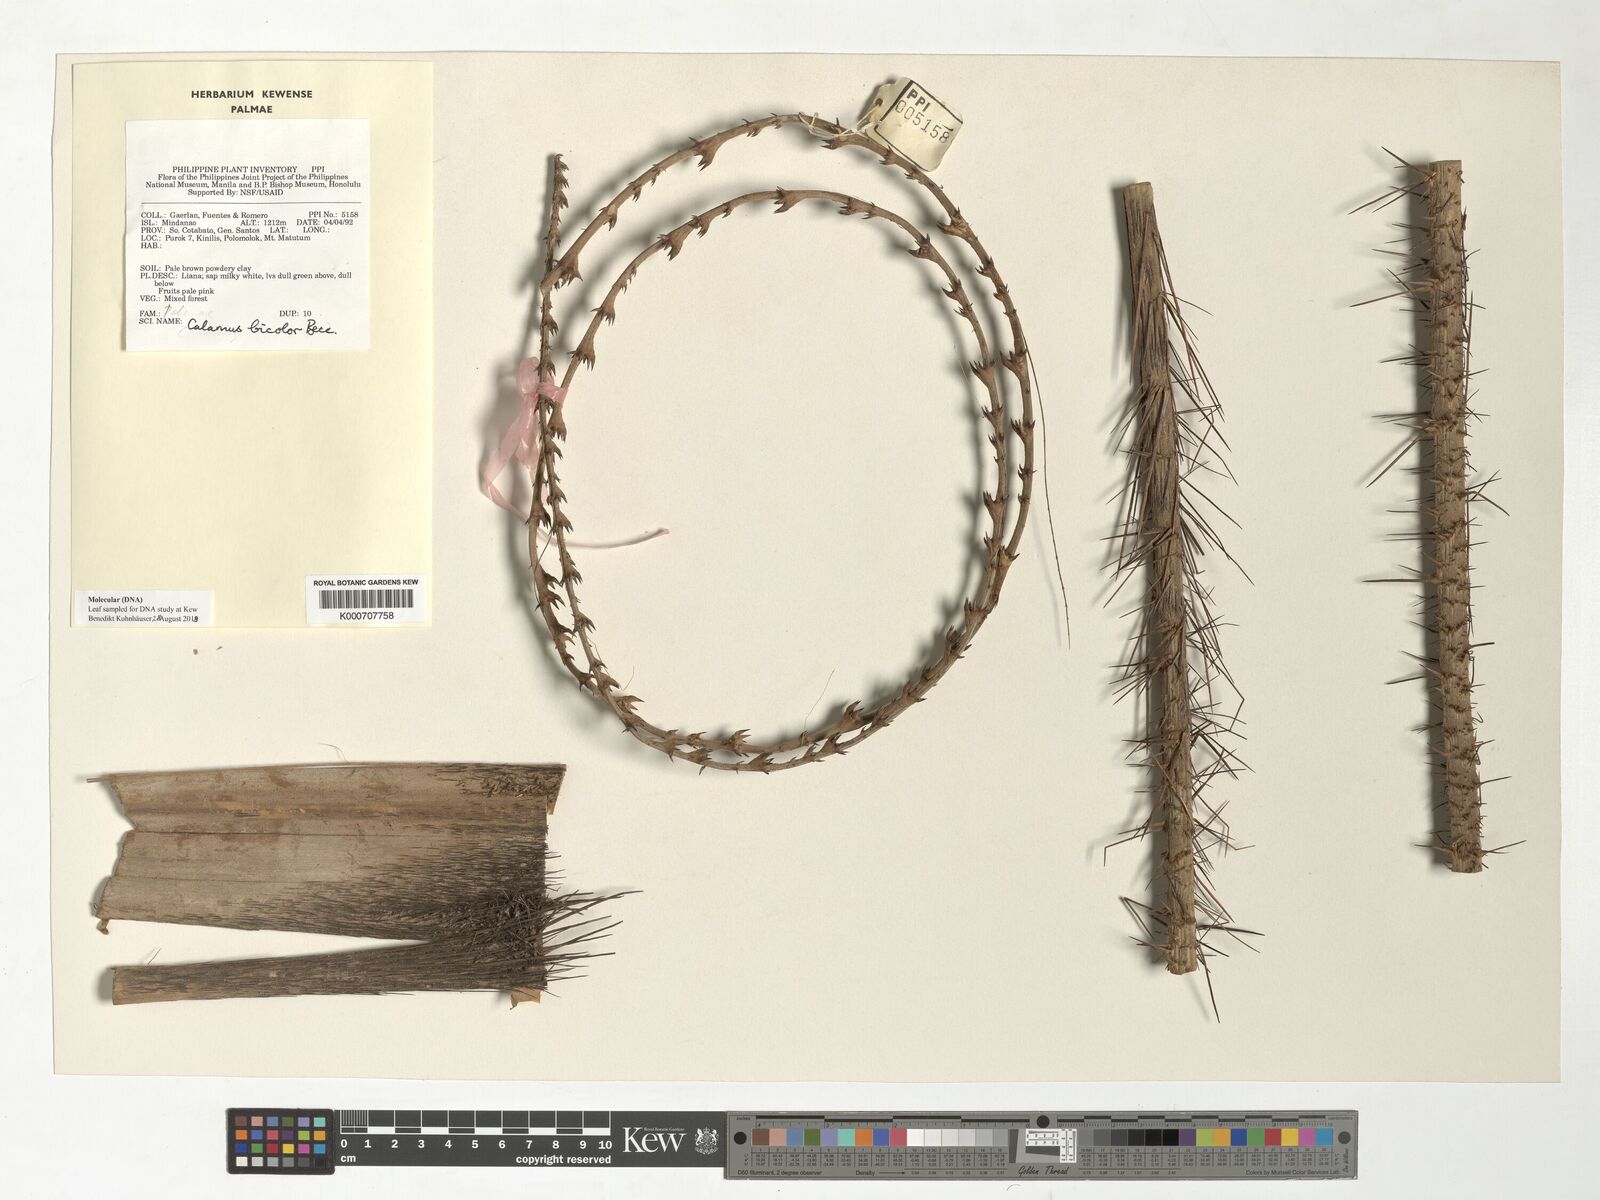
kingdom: Plantae
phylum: Tracheophyta
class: Liliopsida
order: Arecales
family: Arecaceae
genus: Calamus
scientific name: Calamus bicolor
